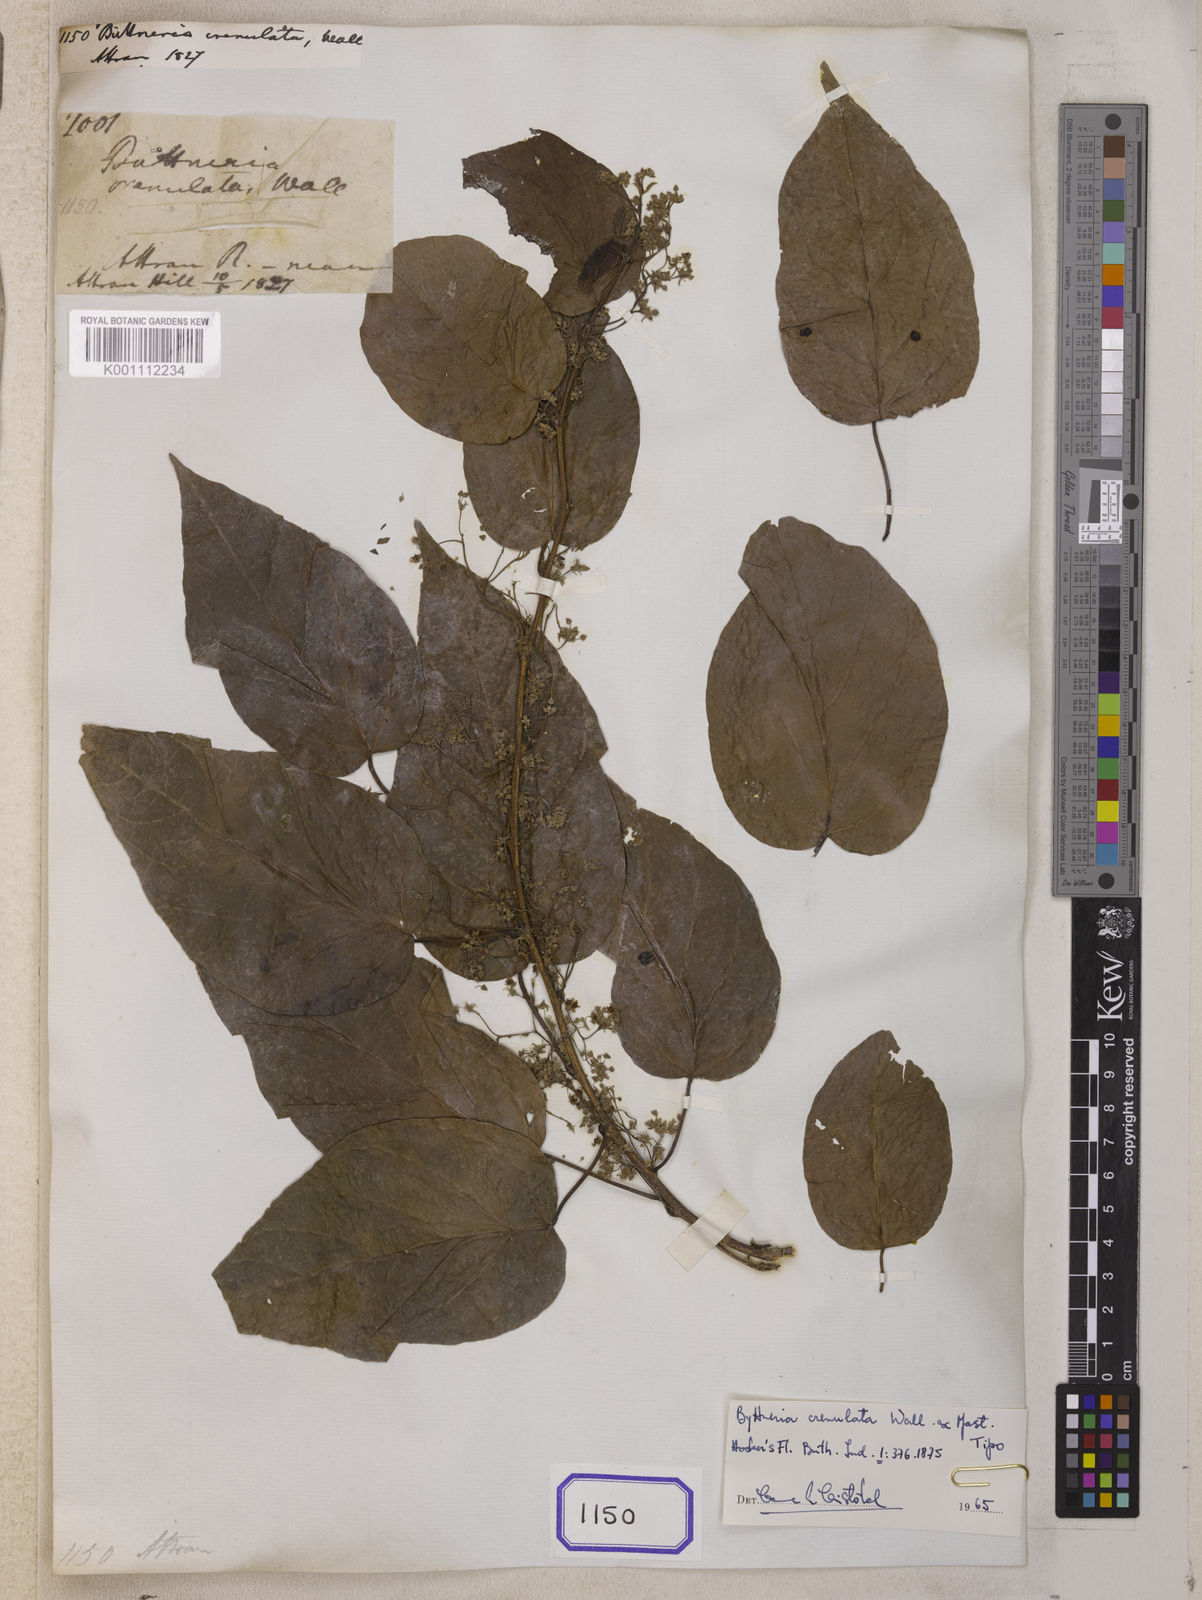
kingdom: Plantae
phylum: Tracheophyta
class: Magnoliopsida
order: Malvales
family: Malvaceae
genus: Byttneria
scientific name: Byttneria
